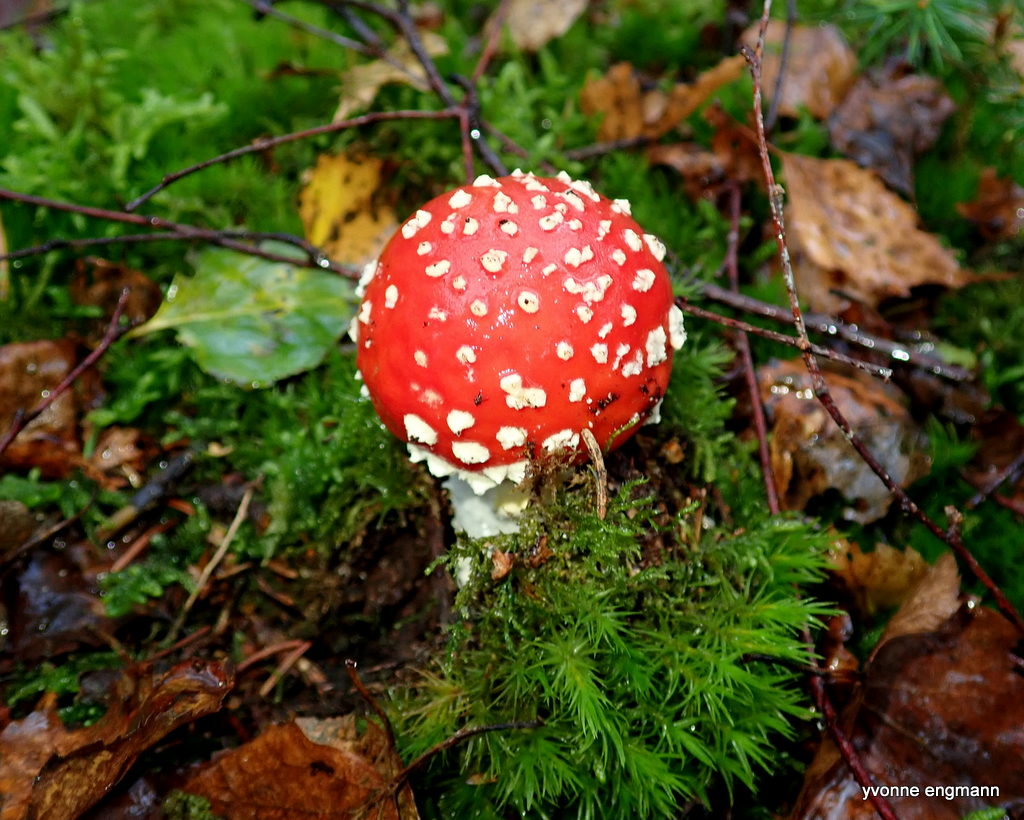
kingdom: Fungi
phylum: Basidiomycota
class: Agaricomycetes
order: Agaricales
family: Amanitaceae
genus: Amanita
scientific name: Amanita muscaria
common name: rød fluesvamp
